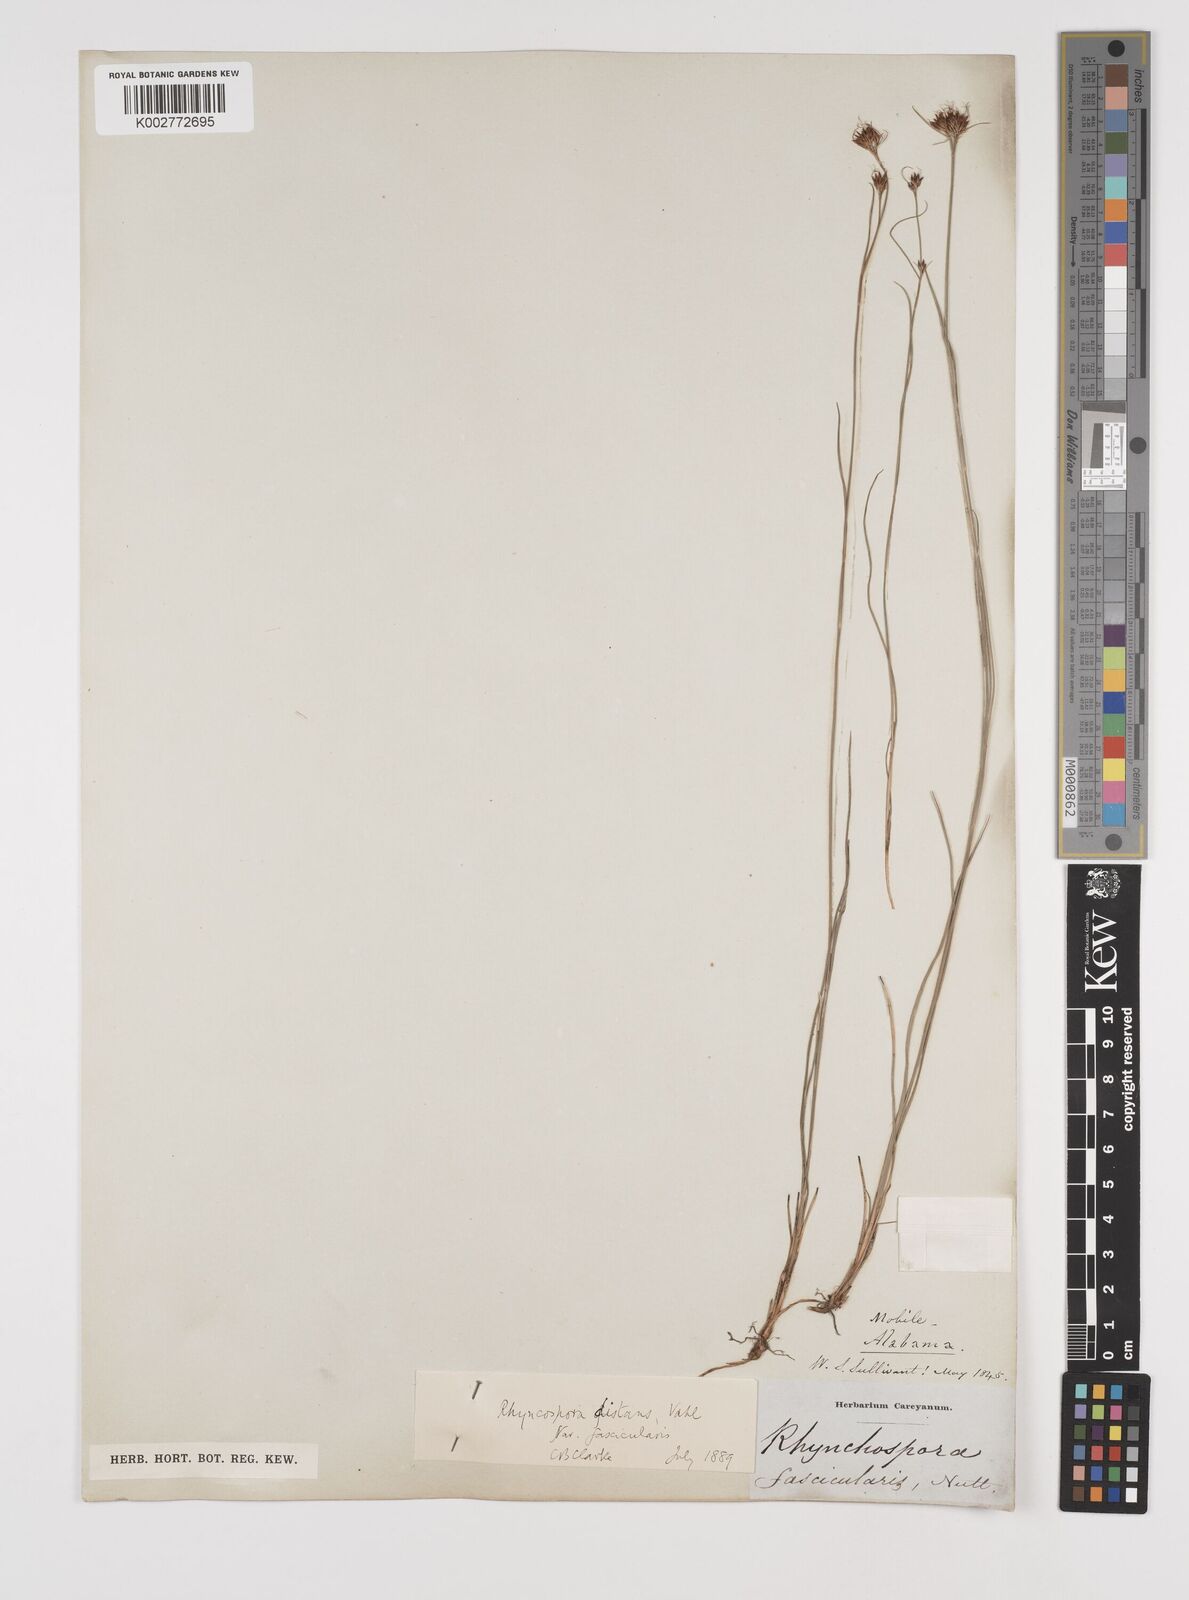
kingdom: Plantae
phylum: Tracheophyta
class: Liliopsida
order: Poales
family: Cyperaceae
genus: Rhynchospora
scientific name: Rhynchospora fascicularis
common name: Fascicled beak sedge
